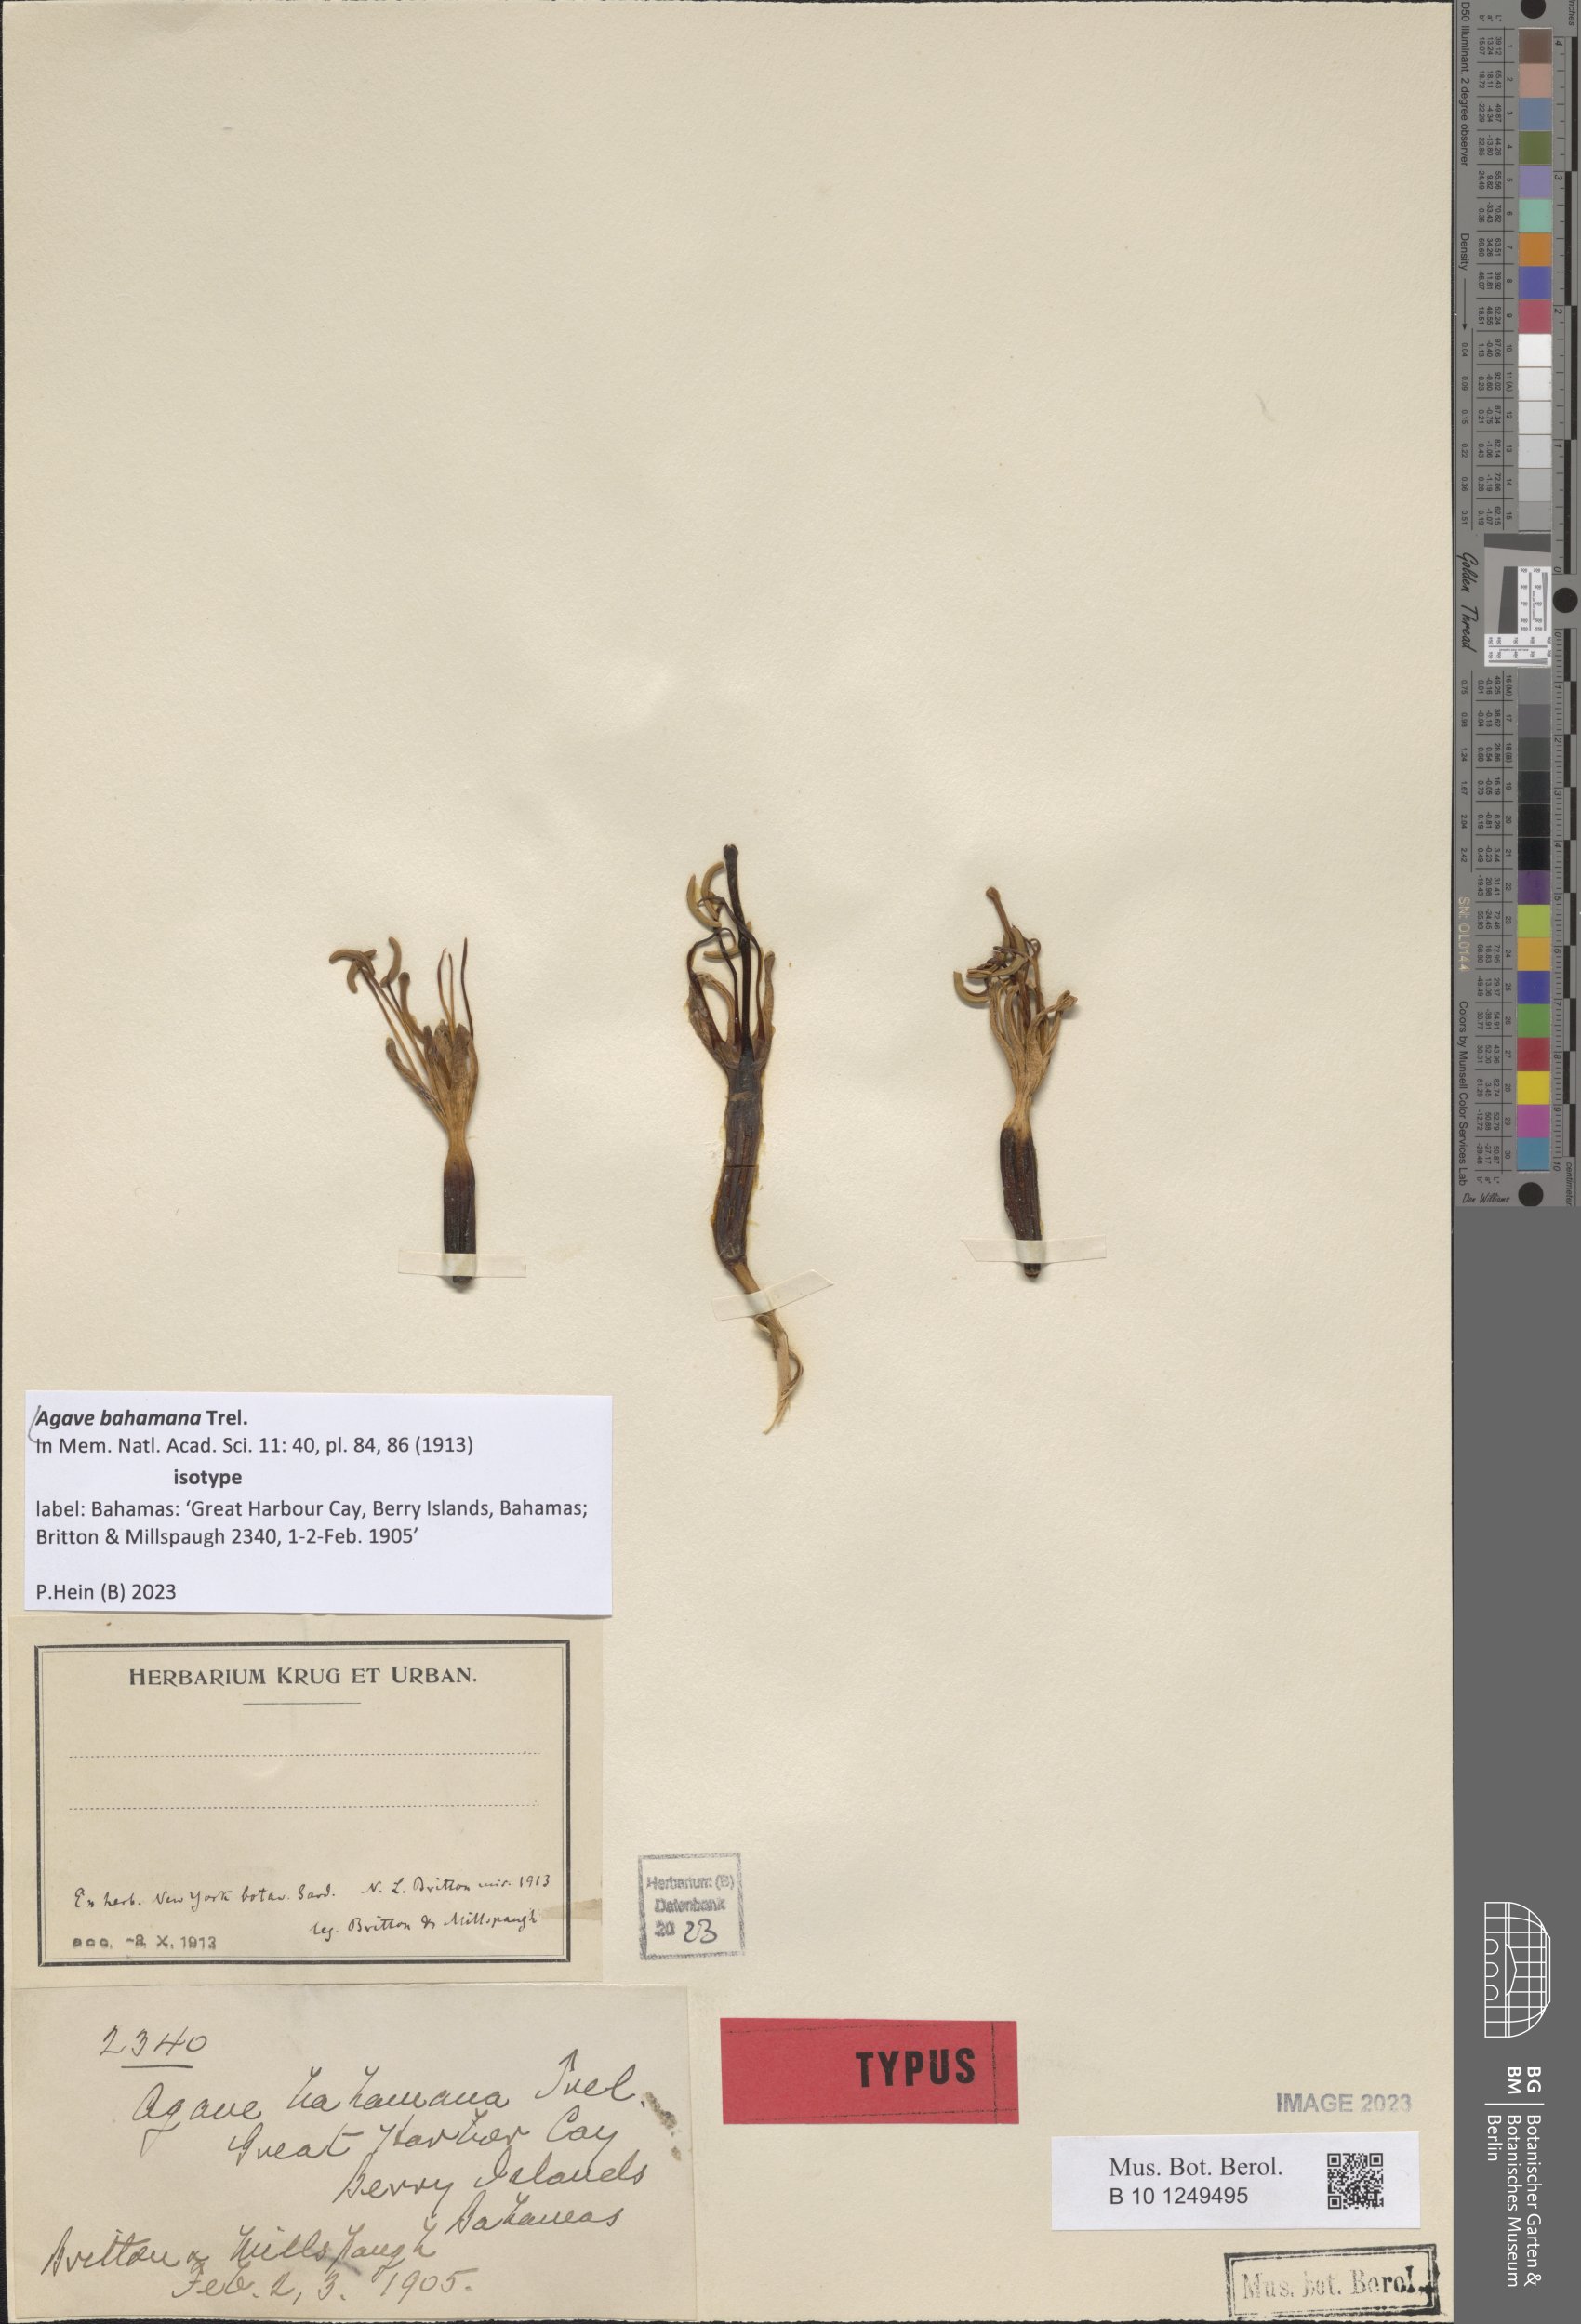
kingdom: Plantae
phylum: Tracheophyta
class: Liliopsida
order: Asparagales
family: Asparagaceae
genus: Agave
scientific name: Agave bahamana
